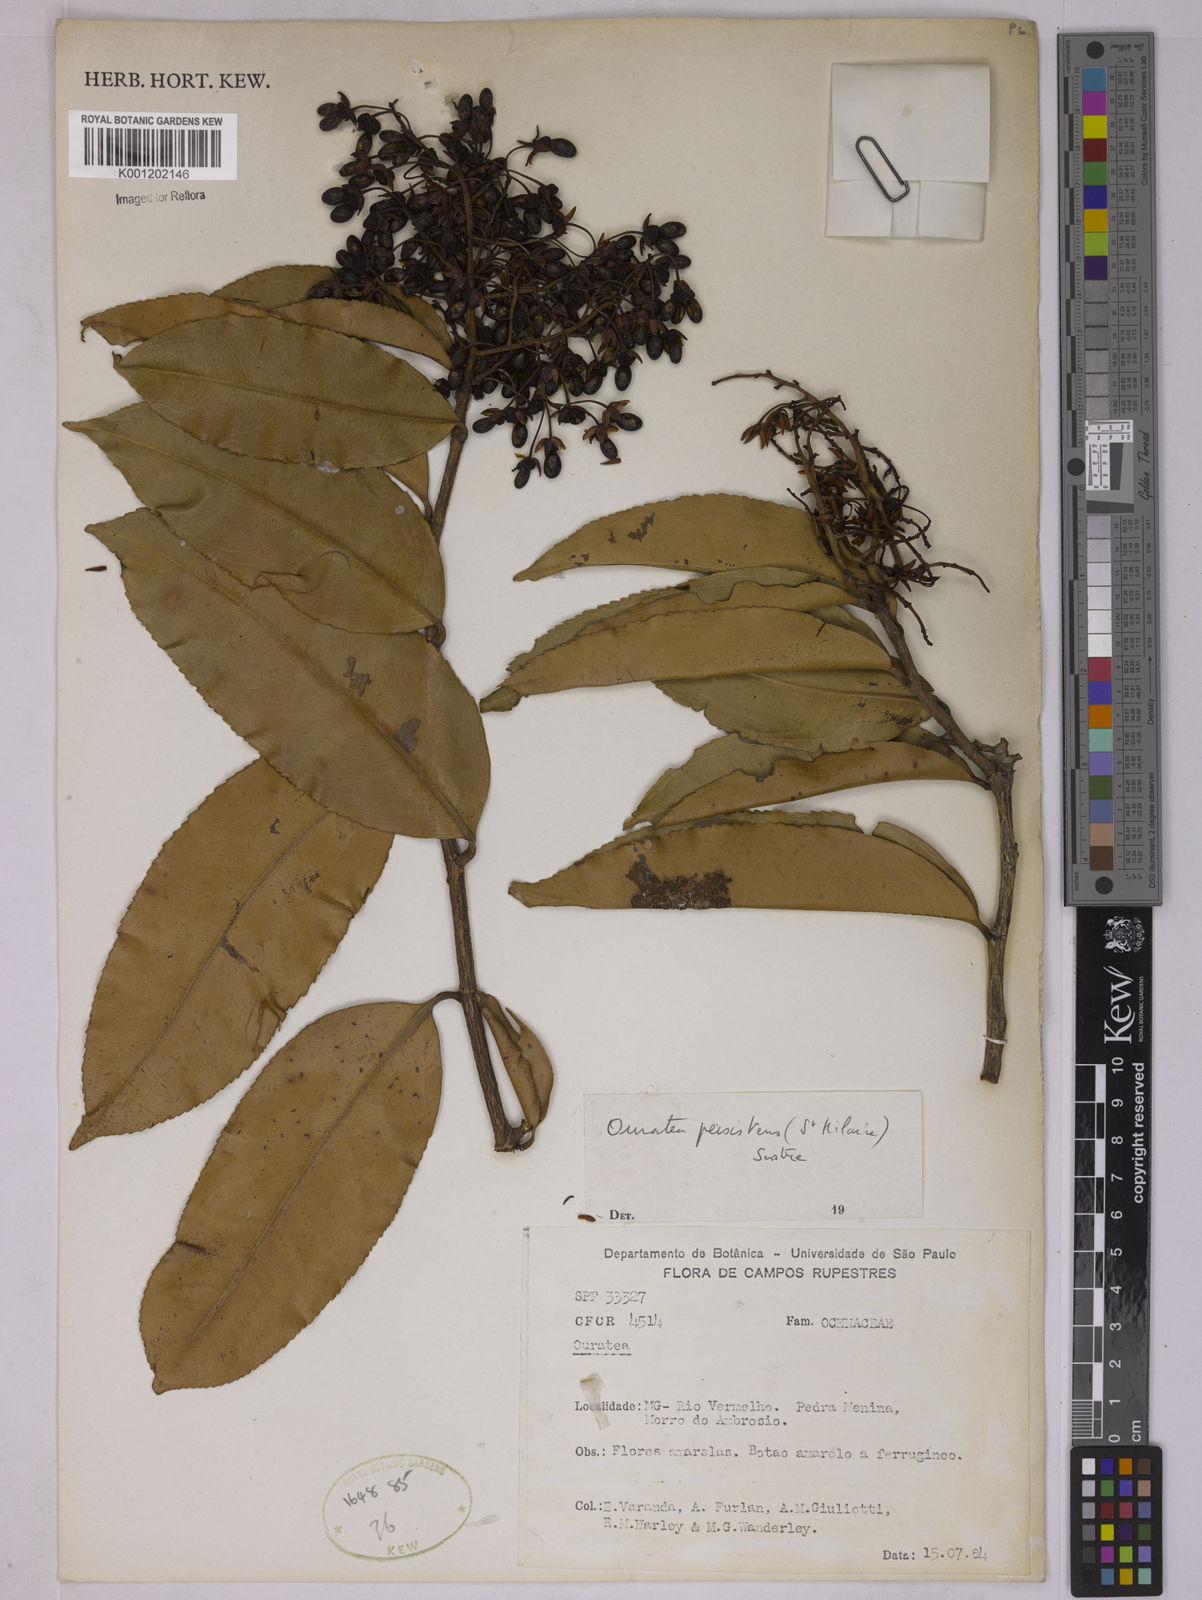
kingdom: Plantae
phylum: Tracheophyta
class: Magnoliopsida
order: Malpighiales
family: Ochnaceae
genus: Ouratea
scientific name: Ouratea
